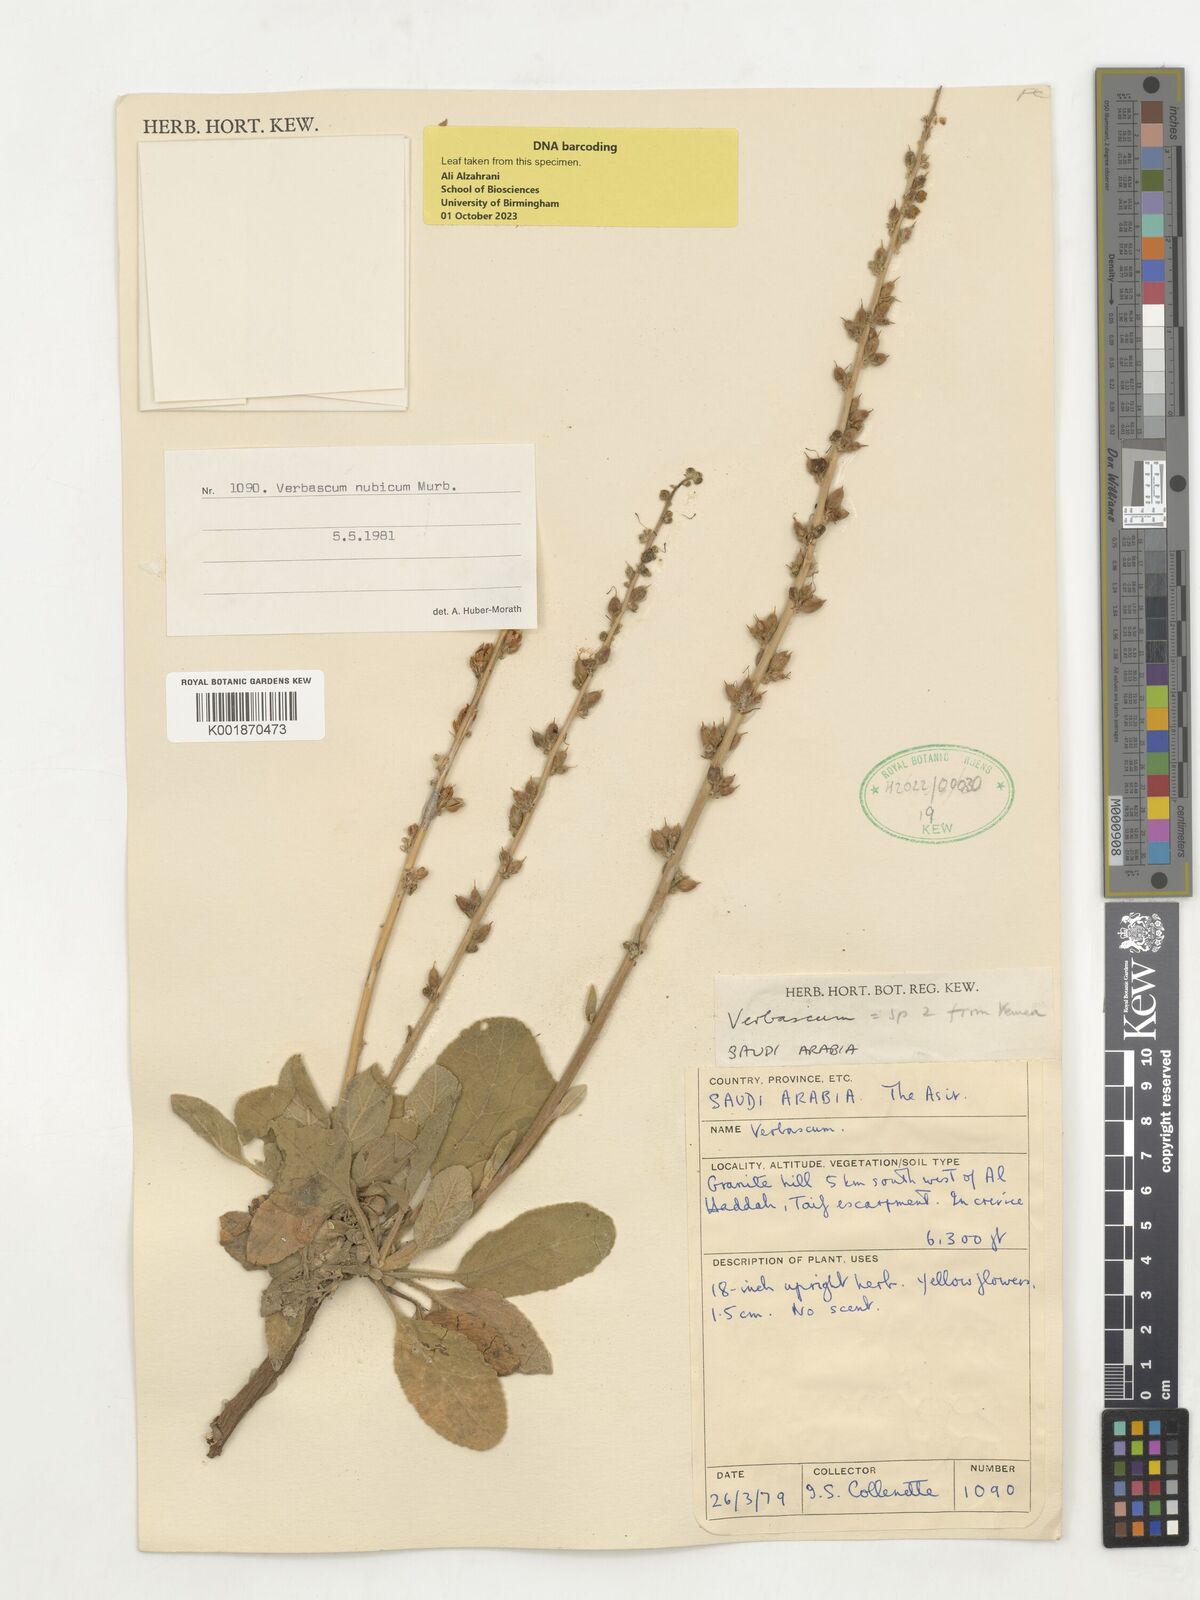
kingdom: Plantae
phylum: Tracheophyta
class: Magnoliopsida
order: Lamiales
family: Scrophulariaceae
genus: Verbascum
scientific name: Verbascum
